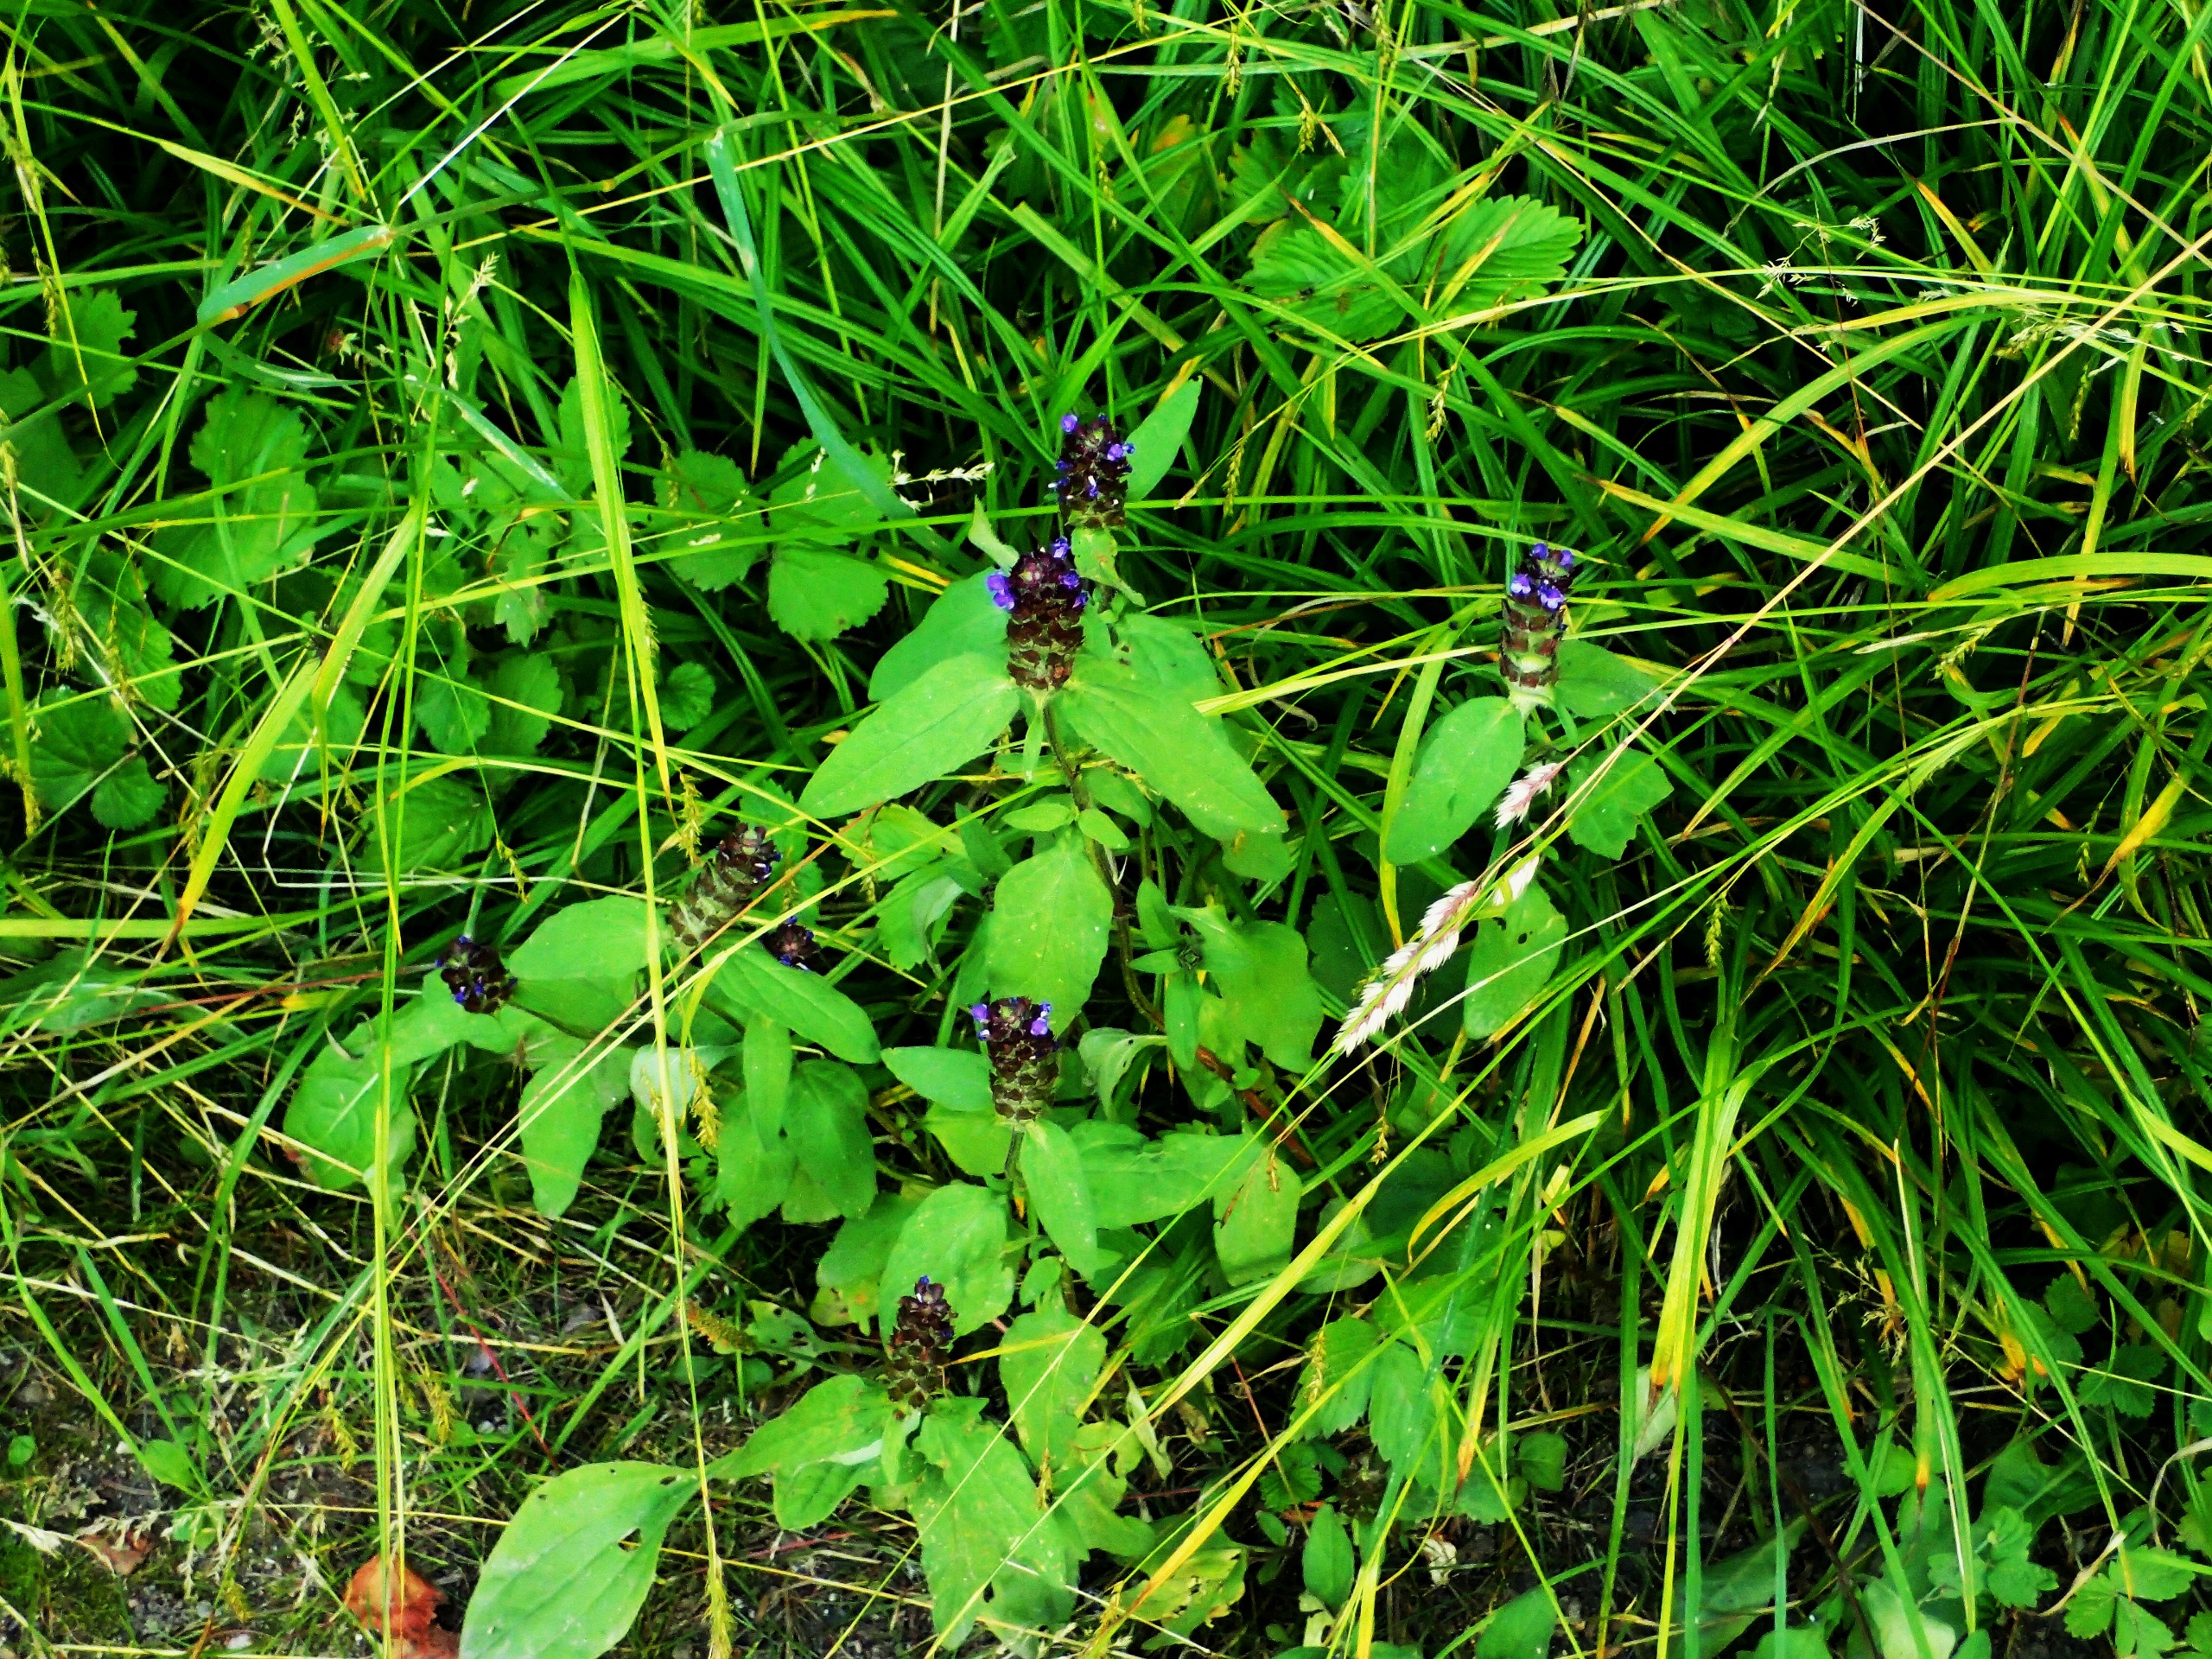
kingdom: Plantae
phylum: Tracheophyta
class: Magnoliopsida
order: Lamiales
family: Lamiaceae
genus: Prunella
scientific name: Prunella vulgaris
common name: Almindelig brunelle
